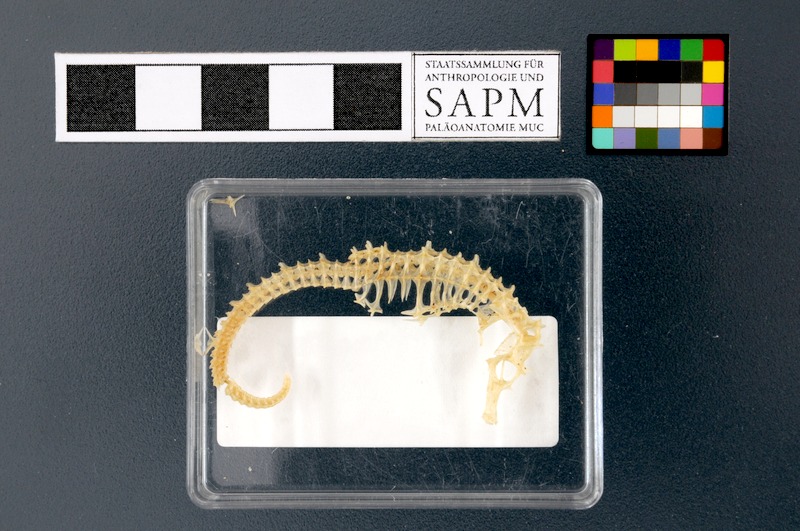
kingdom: Animalia
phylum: Chordata
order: Syngnathiformes
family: Syngnathidae
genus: Hippocampus
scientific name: Hippocampus guttulatus
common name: Long-snouted seahorse
